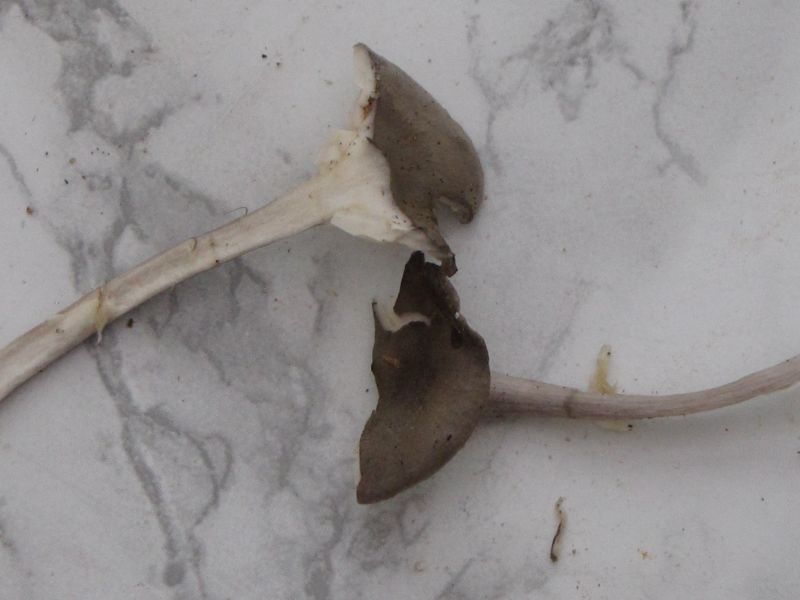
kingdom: Fungi
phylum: Basidiomycota
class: Agaricomycetes
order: Agaricales
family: Hygrophoraceae
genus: Cantharellula
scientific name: Cantharellula umbonata
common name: rødmende gaffelblad
